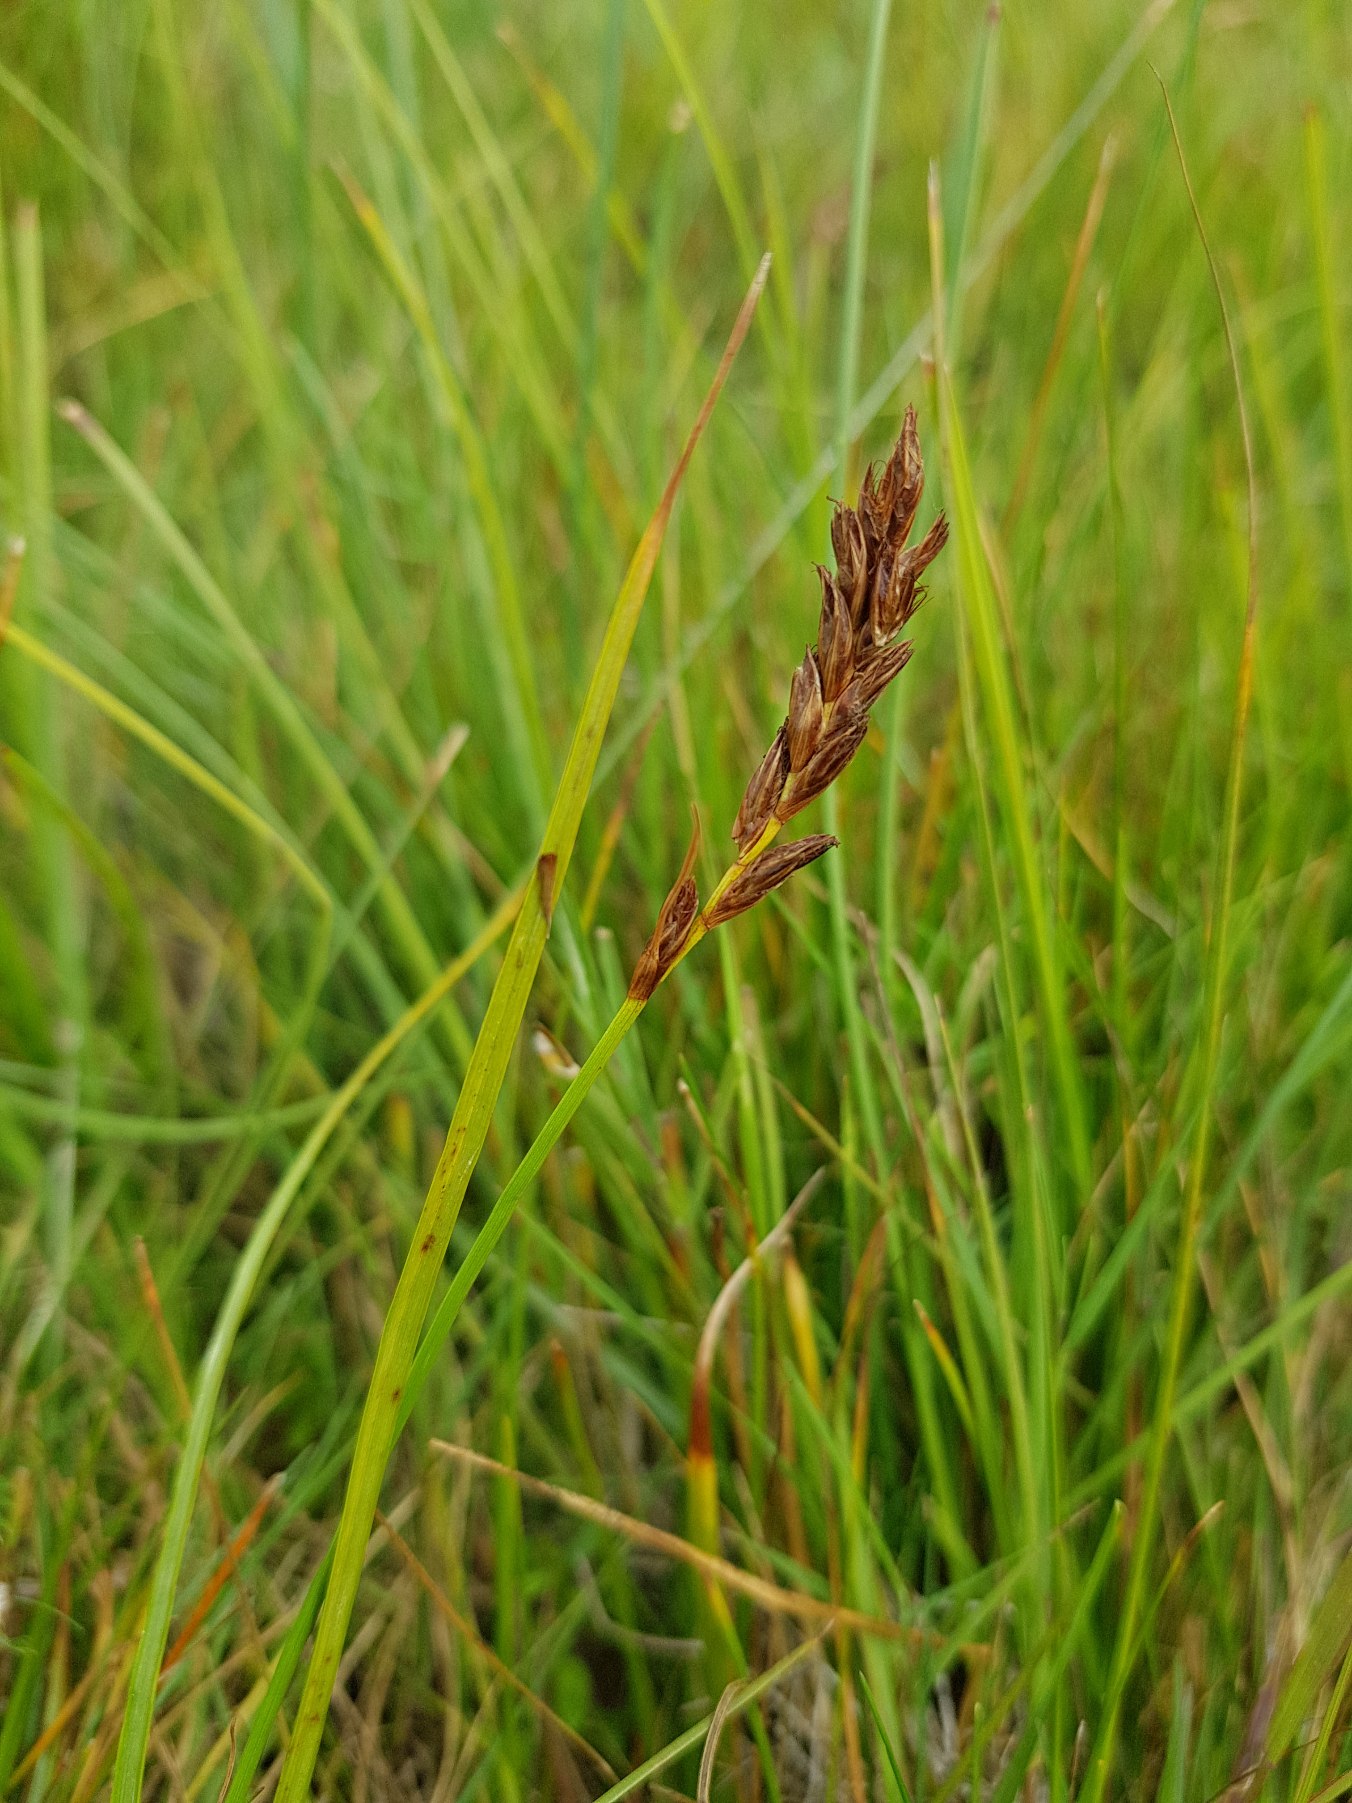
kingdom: Plantae
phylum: Tracheophyta
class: Liliopsida
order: Poales
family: Cyperaceae
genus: Blysmus
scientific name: Blysmus compressus
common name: Fladtrykt kogleaks
